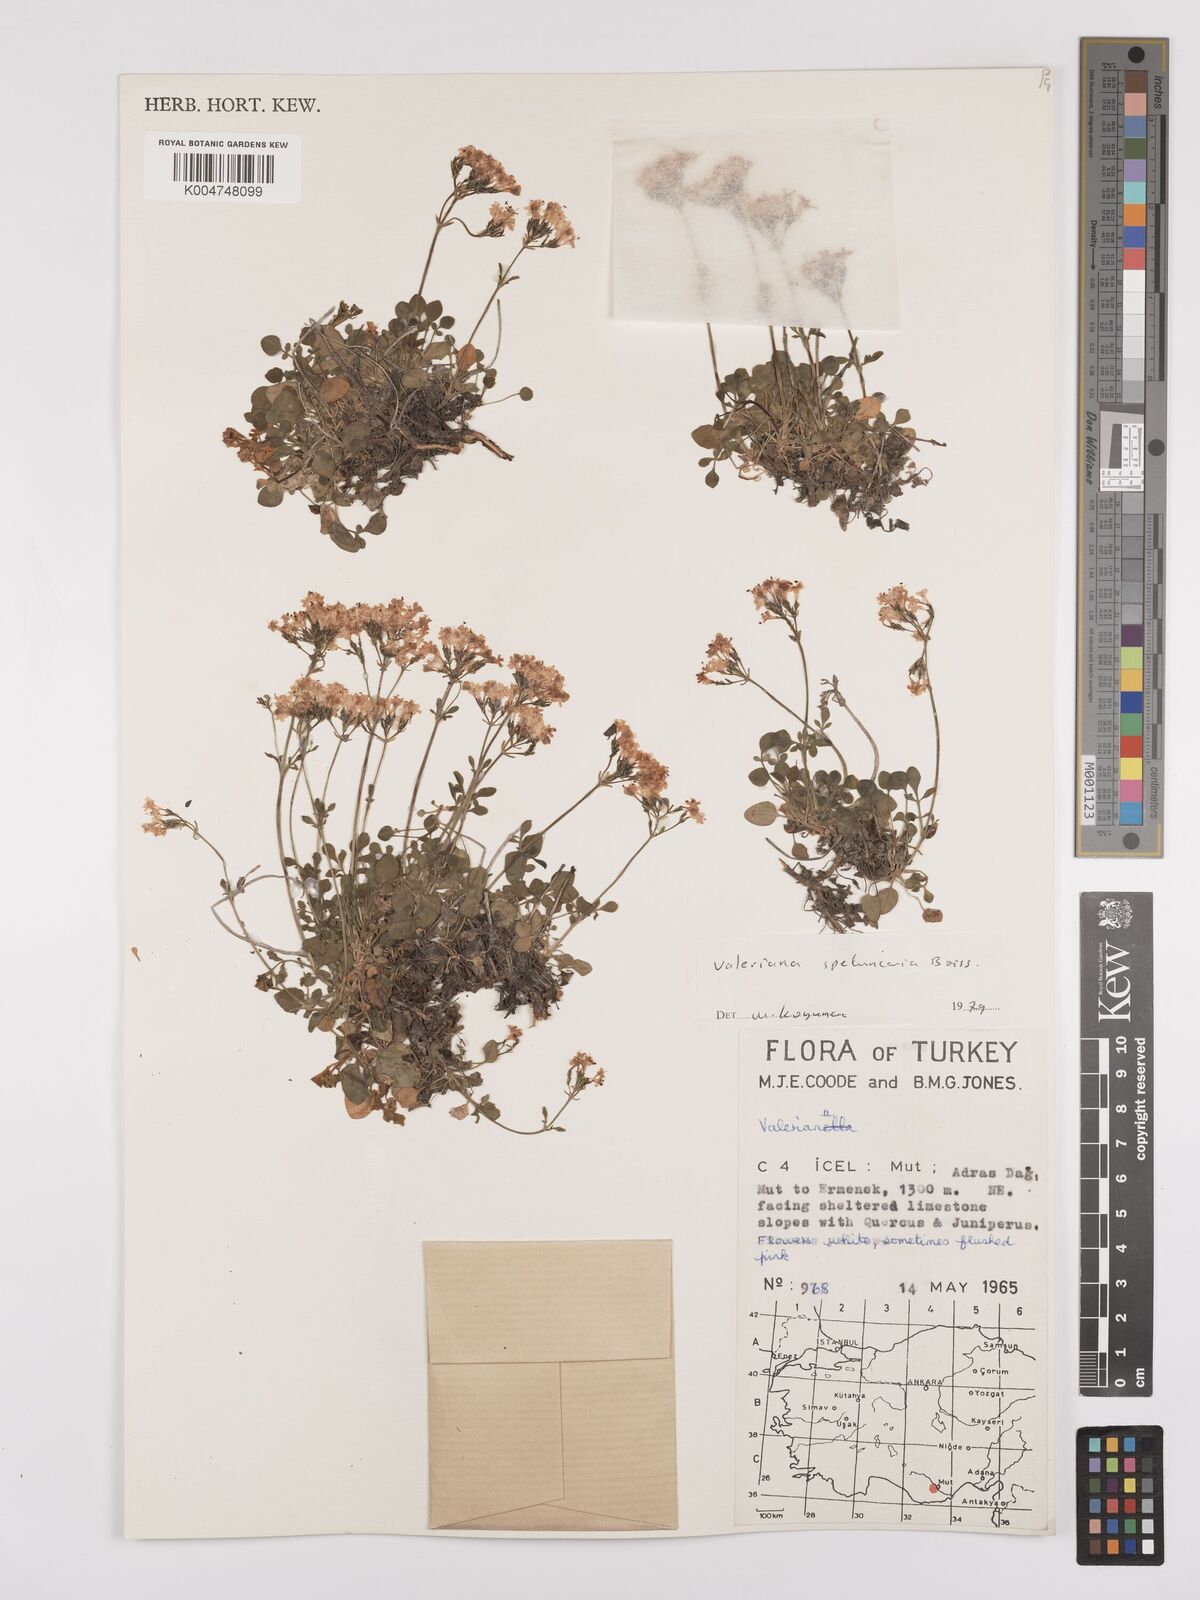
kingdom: Plantae
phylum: Tracheophyta
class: Magnoliopsida
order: Dipsacales
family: Caprifoliaceae
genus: Valeriana
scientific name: Valeriana petrophila
